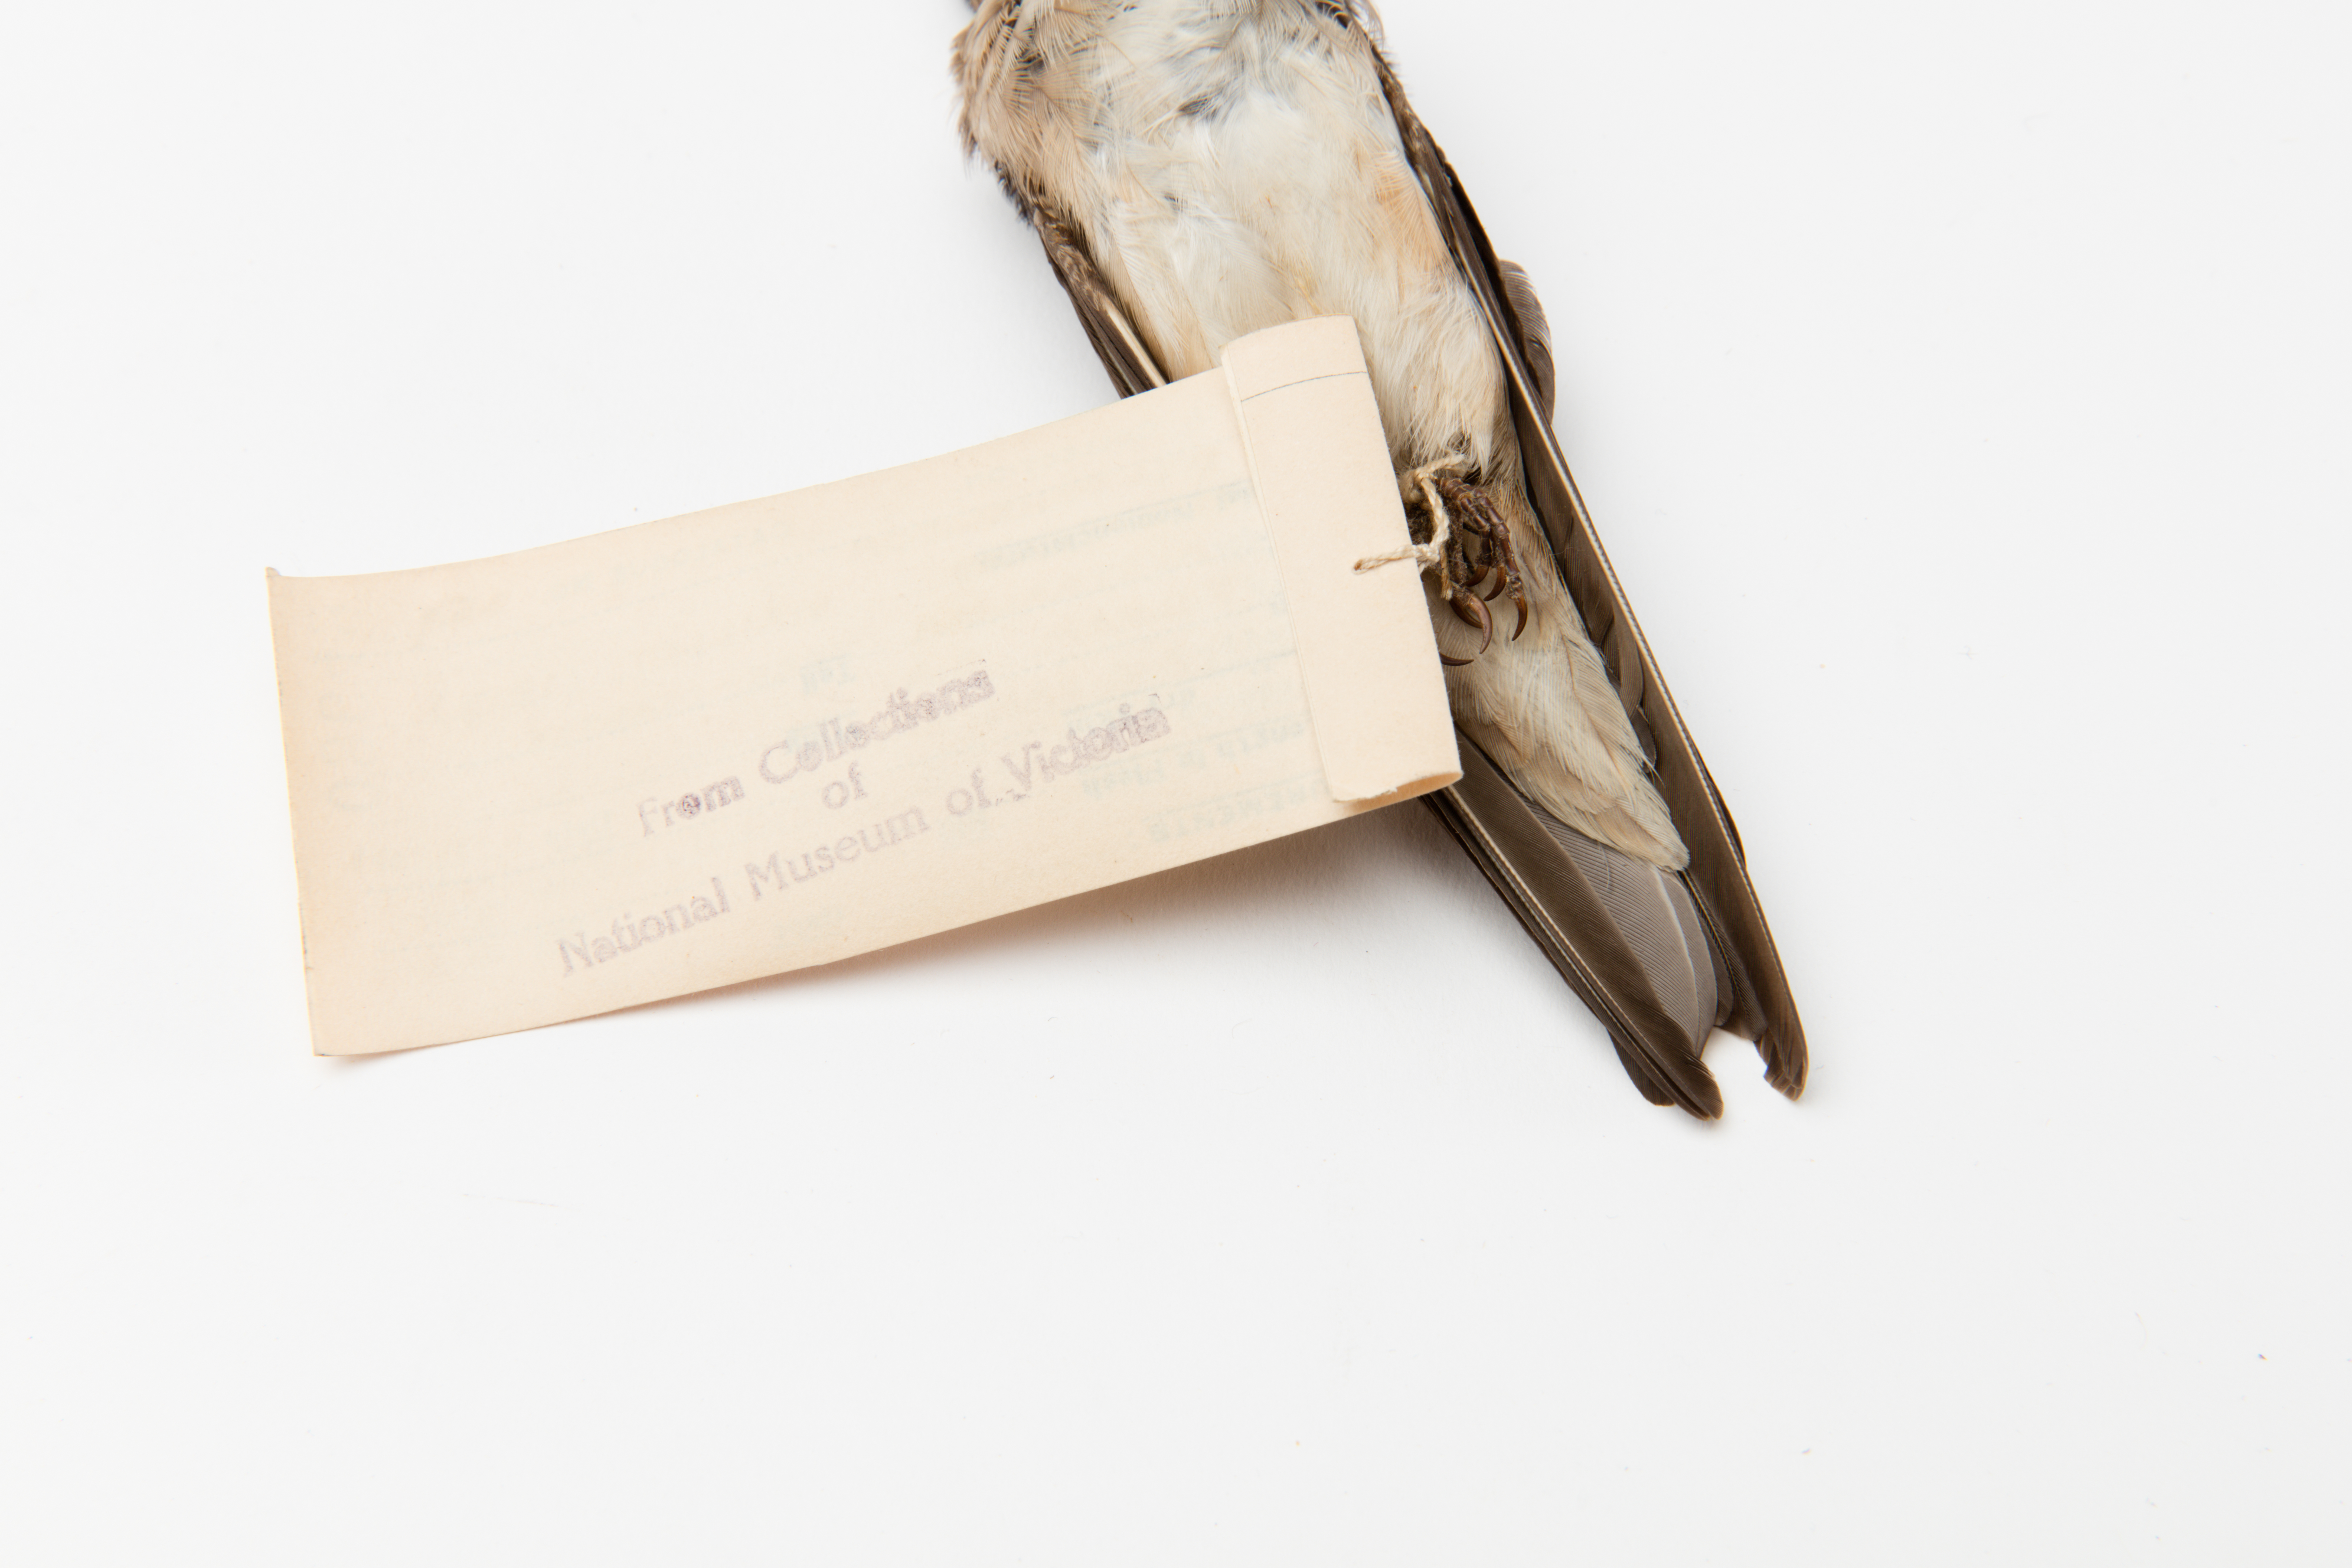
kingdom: Animalia
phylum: Chordata
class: Aves
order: Passeriformes
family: Hirundinidae
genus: Petrochelidon
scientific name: Petrochelidon nigricans
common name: Tree martin
